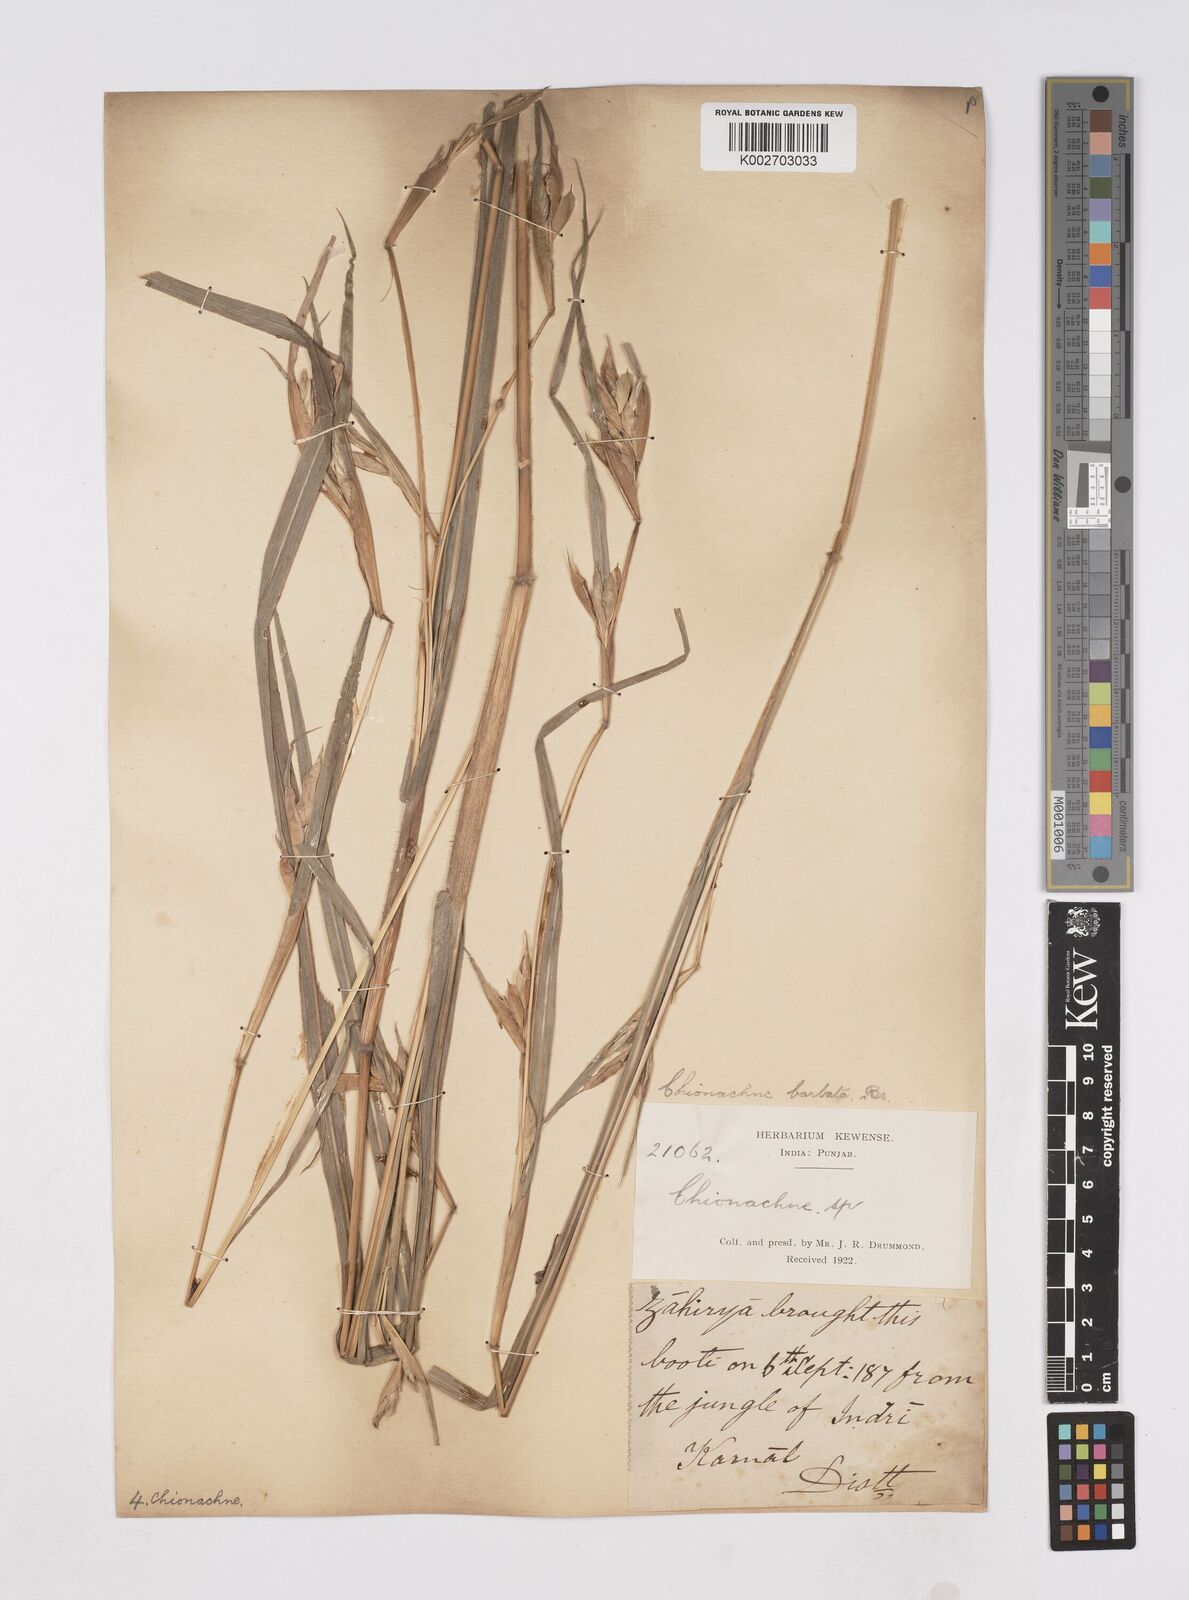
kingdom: Plantae
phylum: Tracheophyta
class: Liliopsida
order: Poales
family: Poaceae
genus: Polytoca
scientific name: Polytoca gigantea
